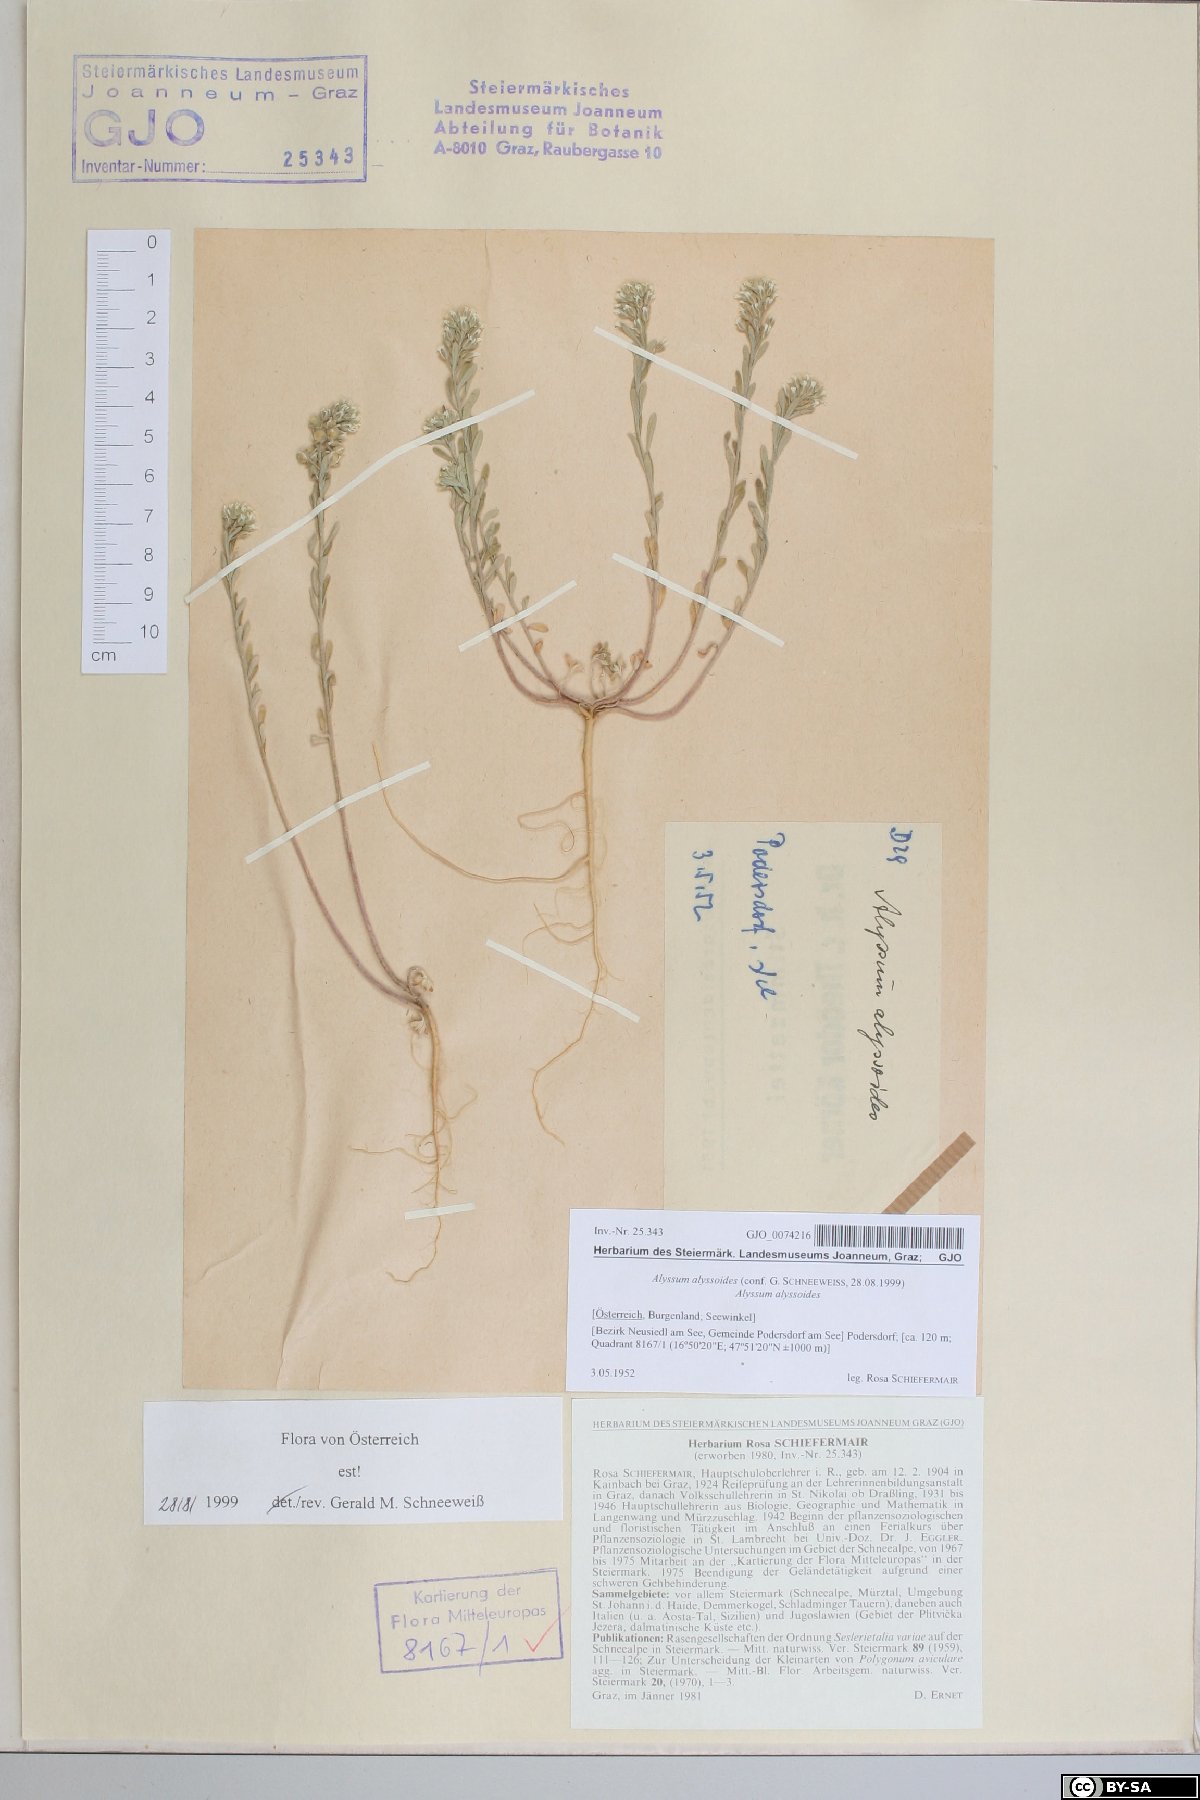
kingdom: Plantae
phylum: Tracheophyta
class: Magnoliopsida
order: Brassicales
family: Brassicaceae
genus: Alyssum
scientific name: Alyssum alyssoides
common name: Small alison
